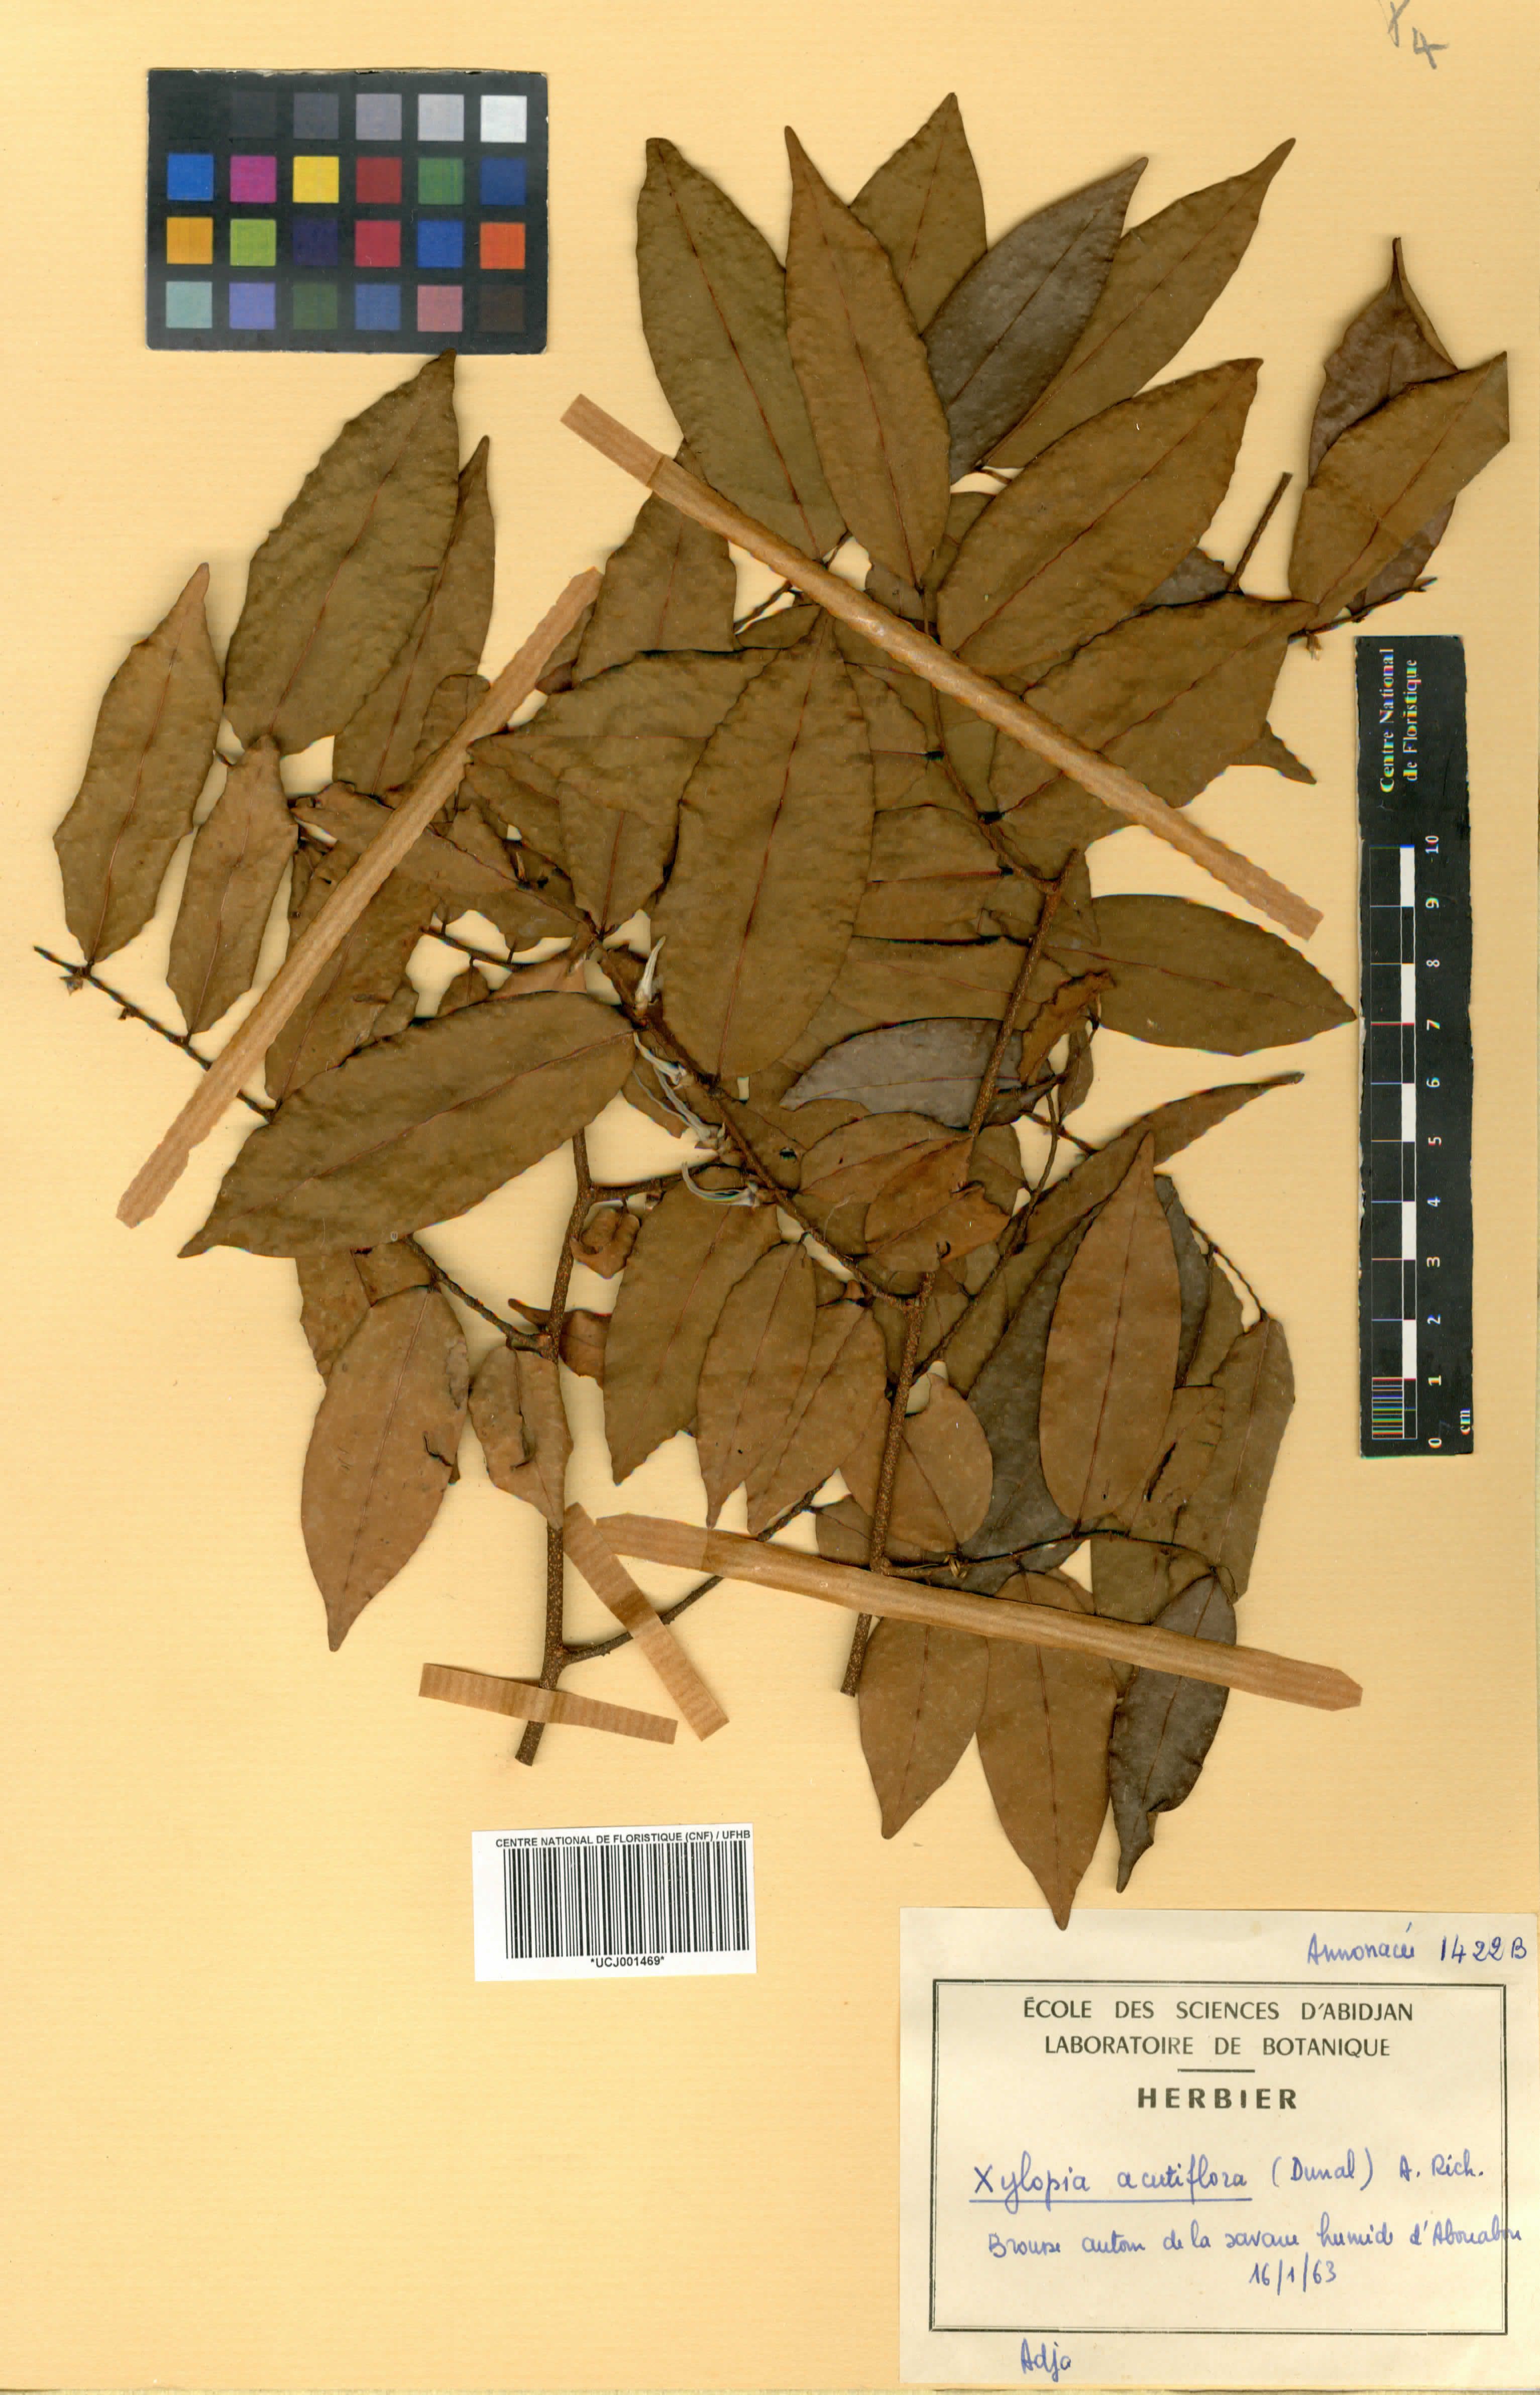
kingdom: Plantae
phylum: Tracheophyta
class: Magnoliopsida
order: Magnoliales
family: Annonaceae
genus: Xylopia
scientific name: Xylopia acutiflora
